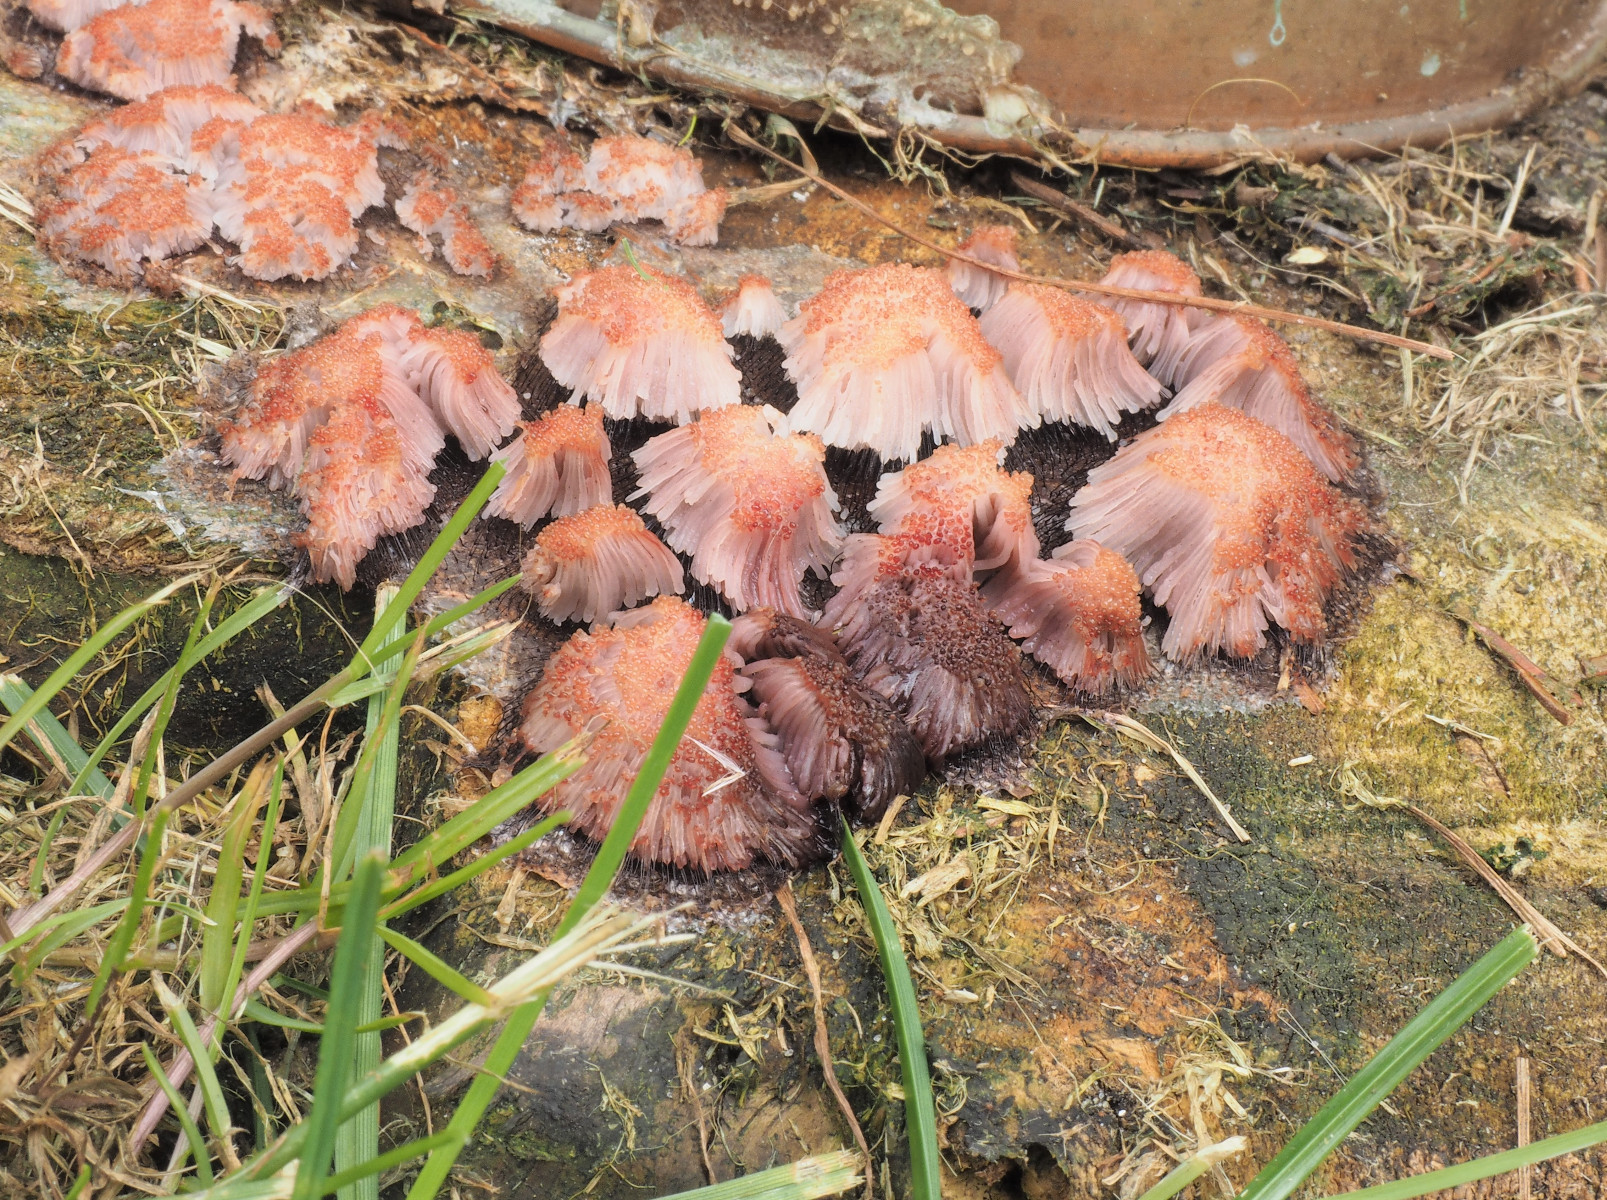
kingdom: Protozoa
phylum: Mycetozoa
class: Myxomycetes
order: Stemonitidales
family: Stemonitidaceae
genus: Stemonitis
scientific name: Stemonitis
